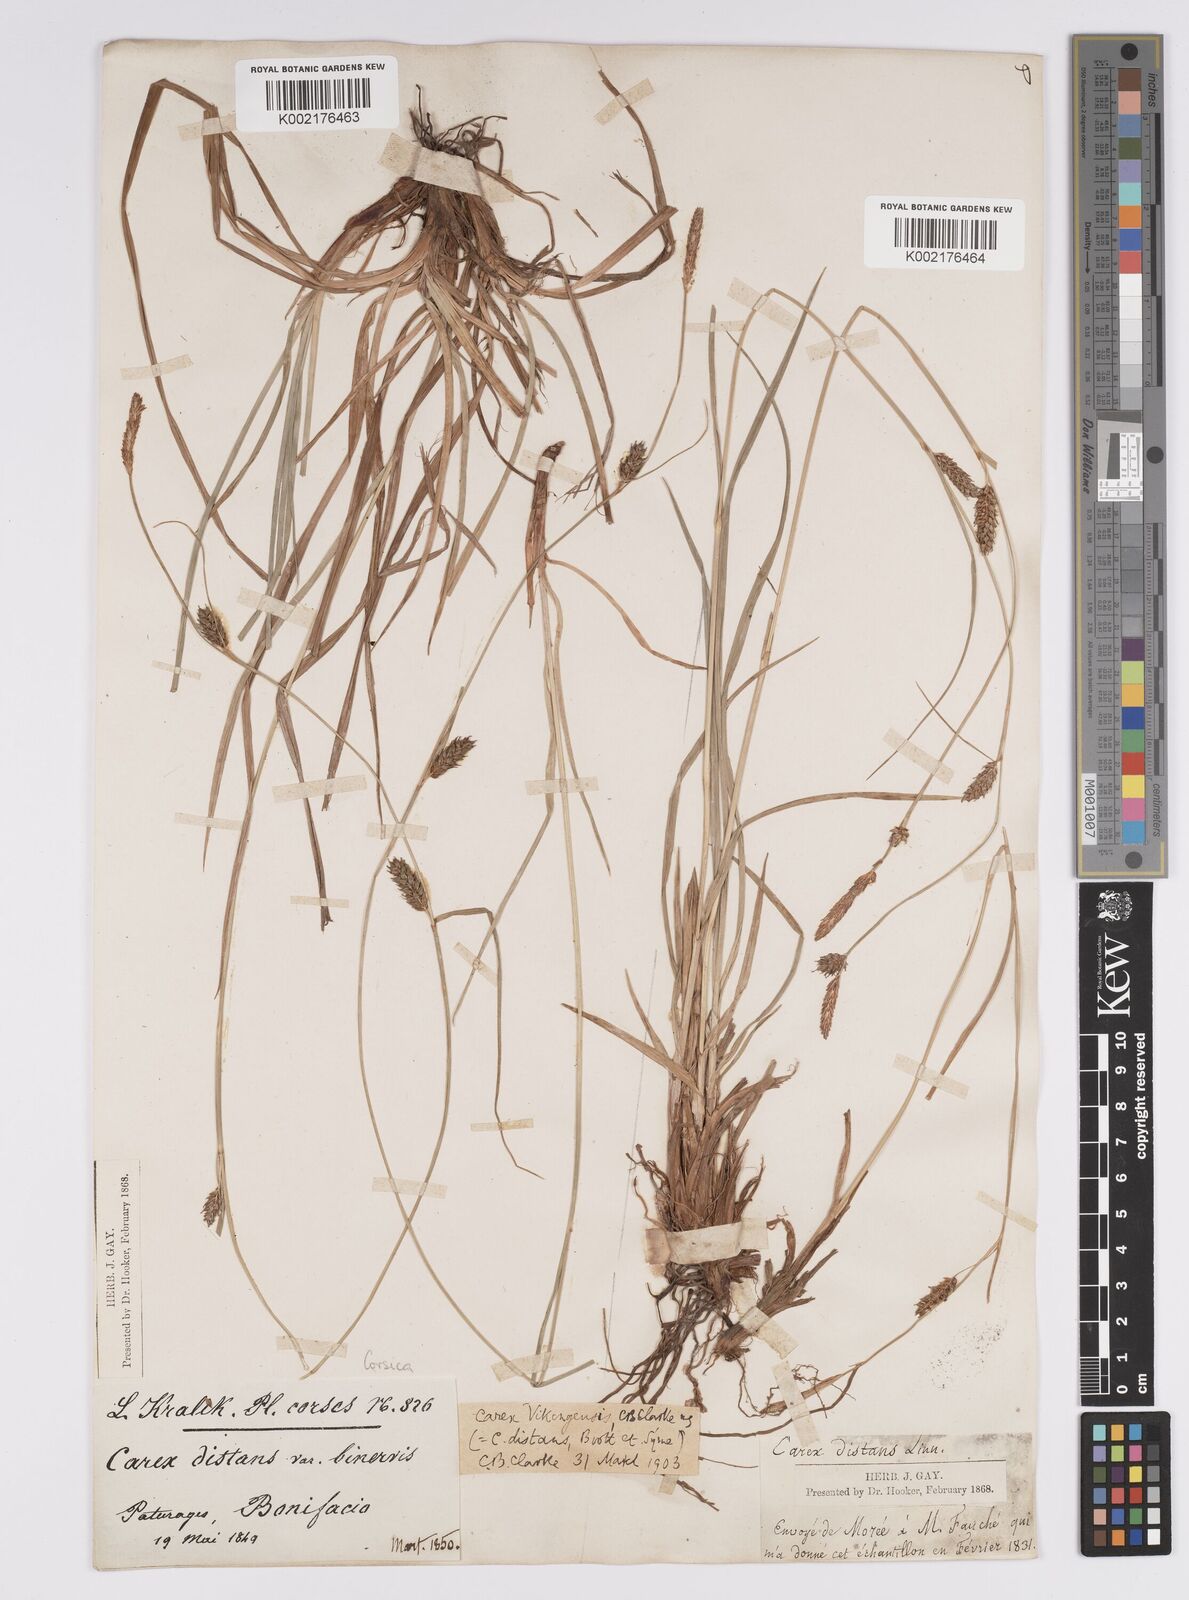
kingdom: Plantae
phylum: Tracheophyta
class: Liliopsida
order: Poales
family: Cyperaceae
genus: Carex
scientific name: Carex distans
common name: Distant sedge
